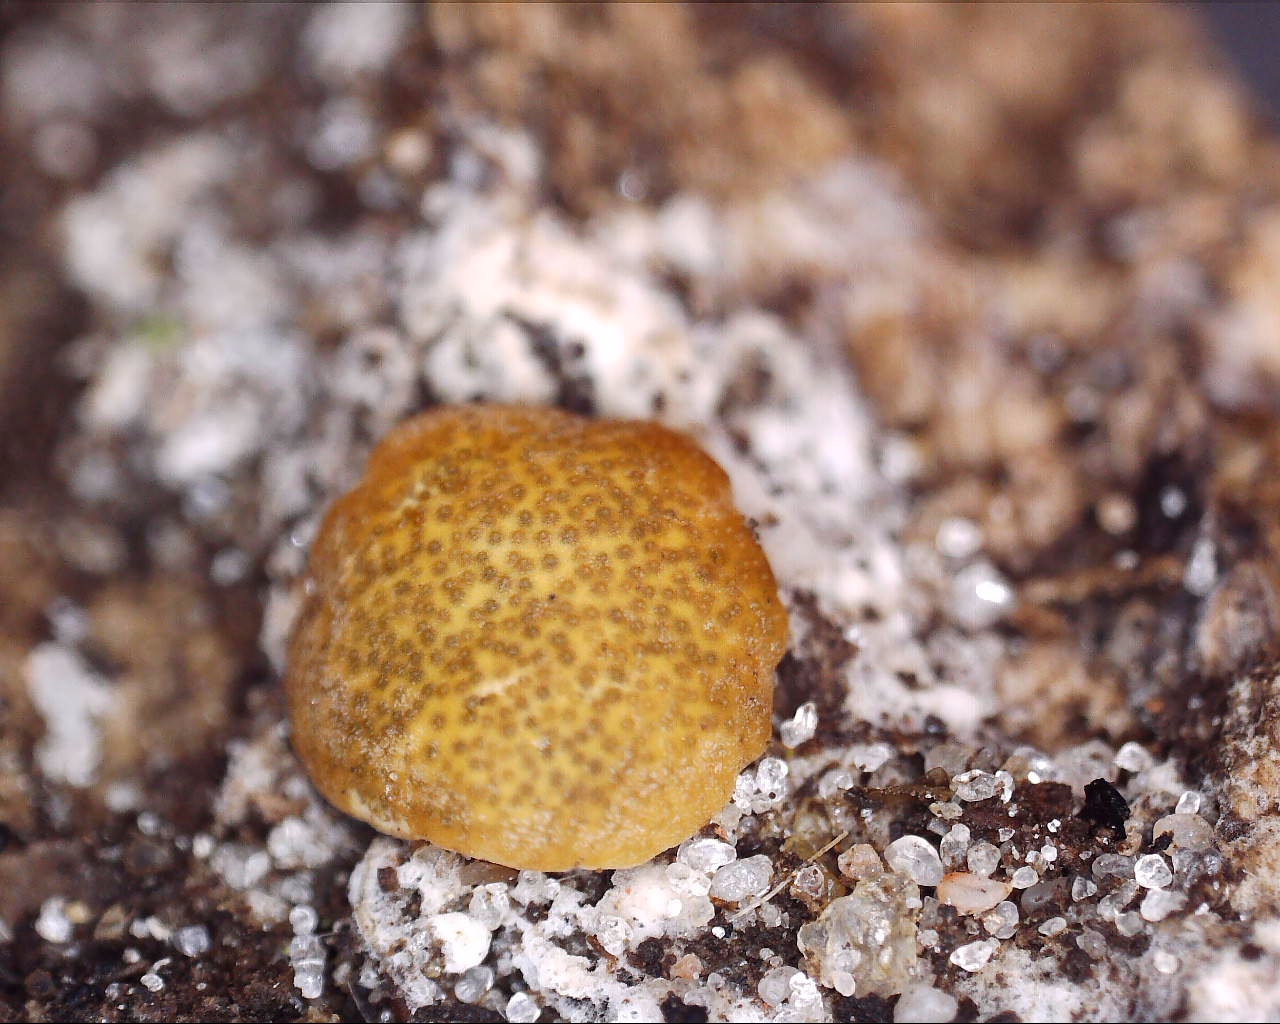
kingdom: Fungi
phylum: Ascomycota
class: Sordariomycetes
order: Hypocreales
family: Hypocreaceae
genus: Trichoderma
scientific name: Trichoderma
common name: kødkerne
